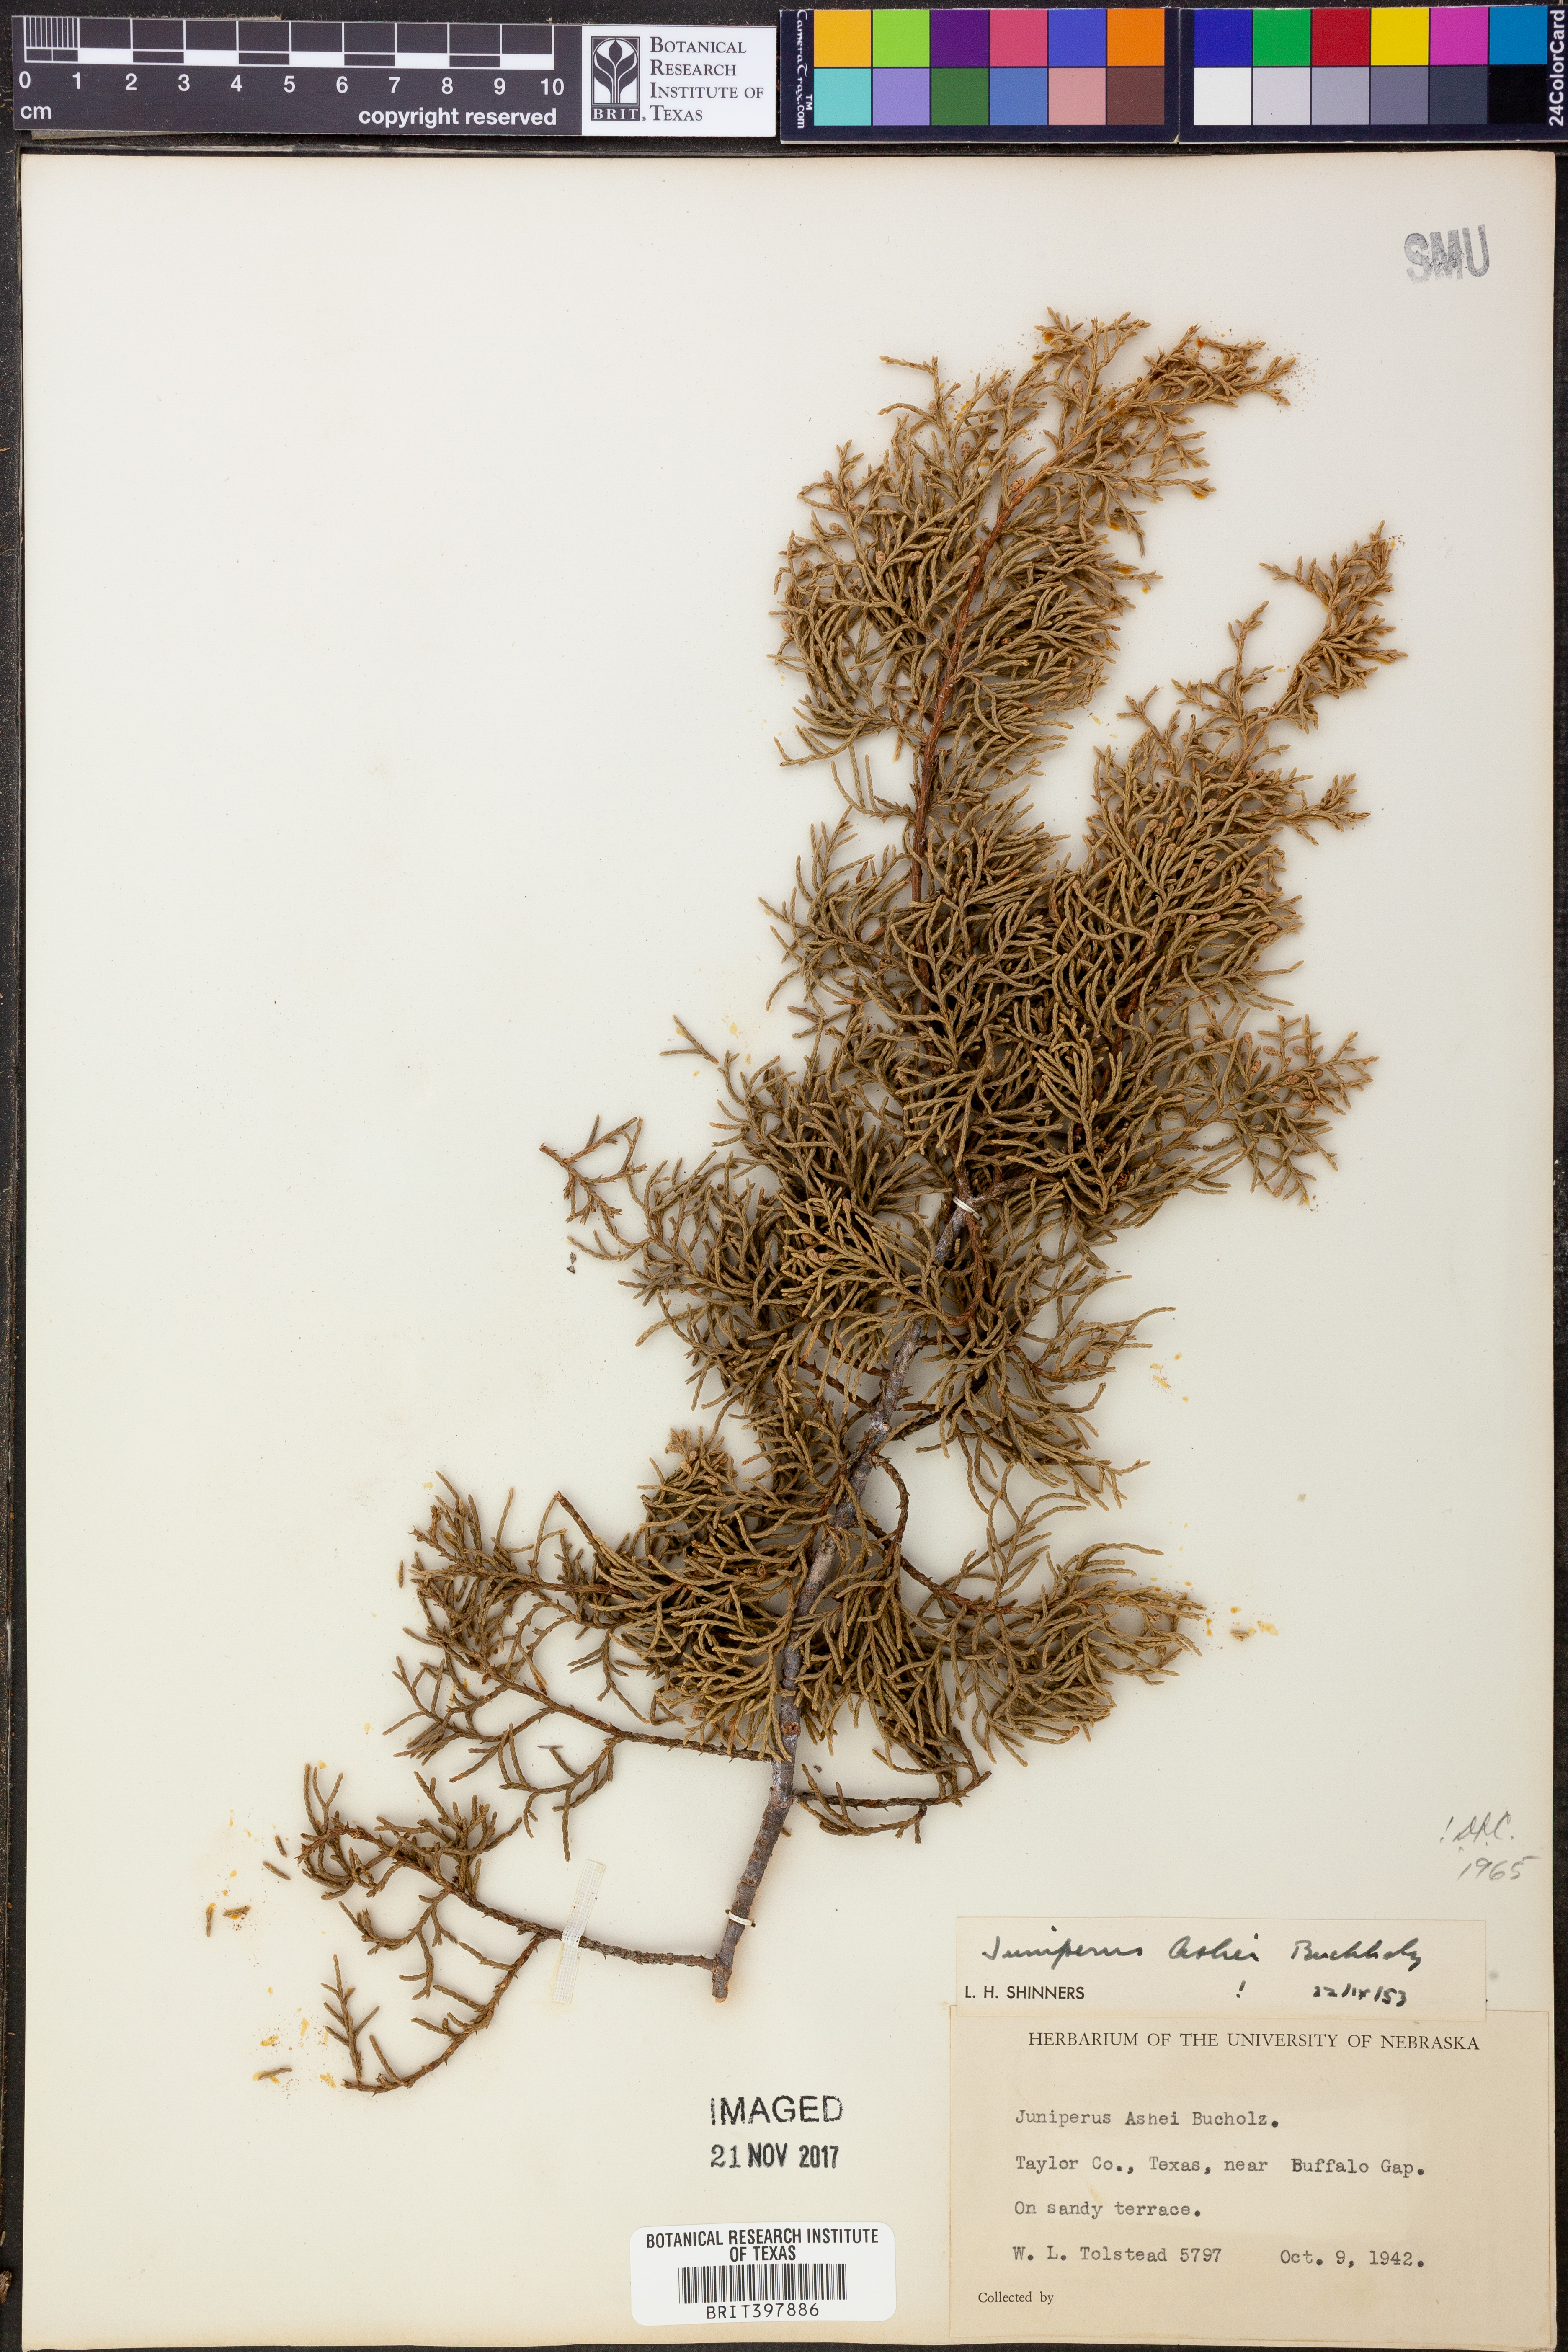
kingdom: Plantae
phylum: Tracheophyta
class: Pinopsida
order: Pinales
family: Cupressaceae
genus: Juniperus
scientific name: Juniperus ashei
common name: Mexican juniper
